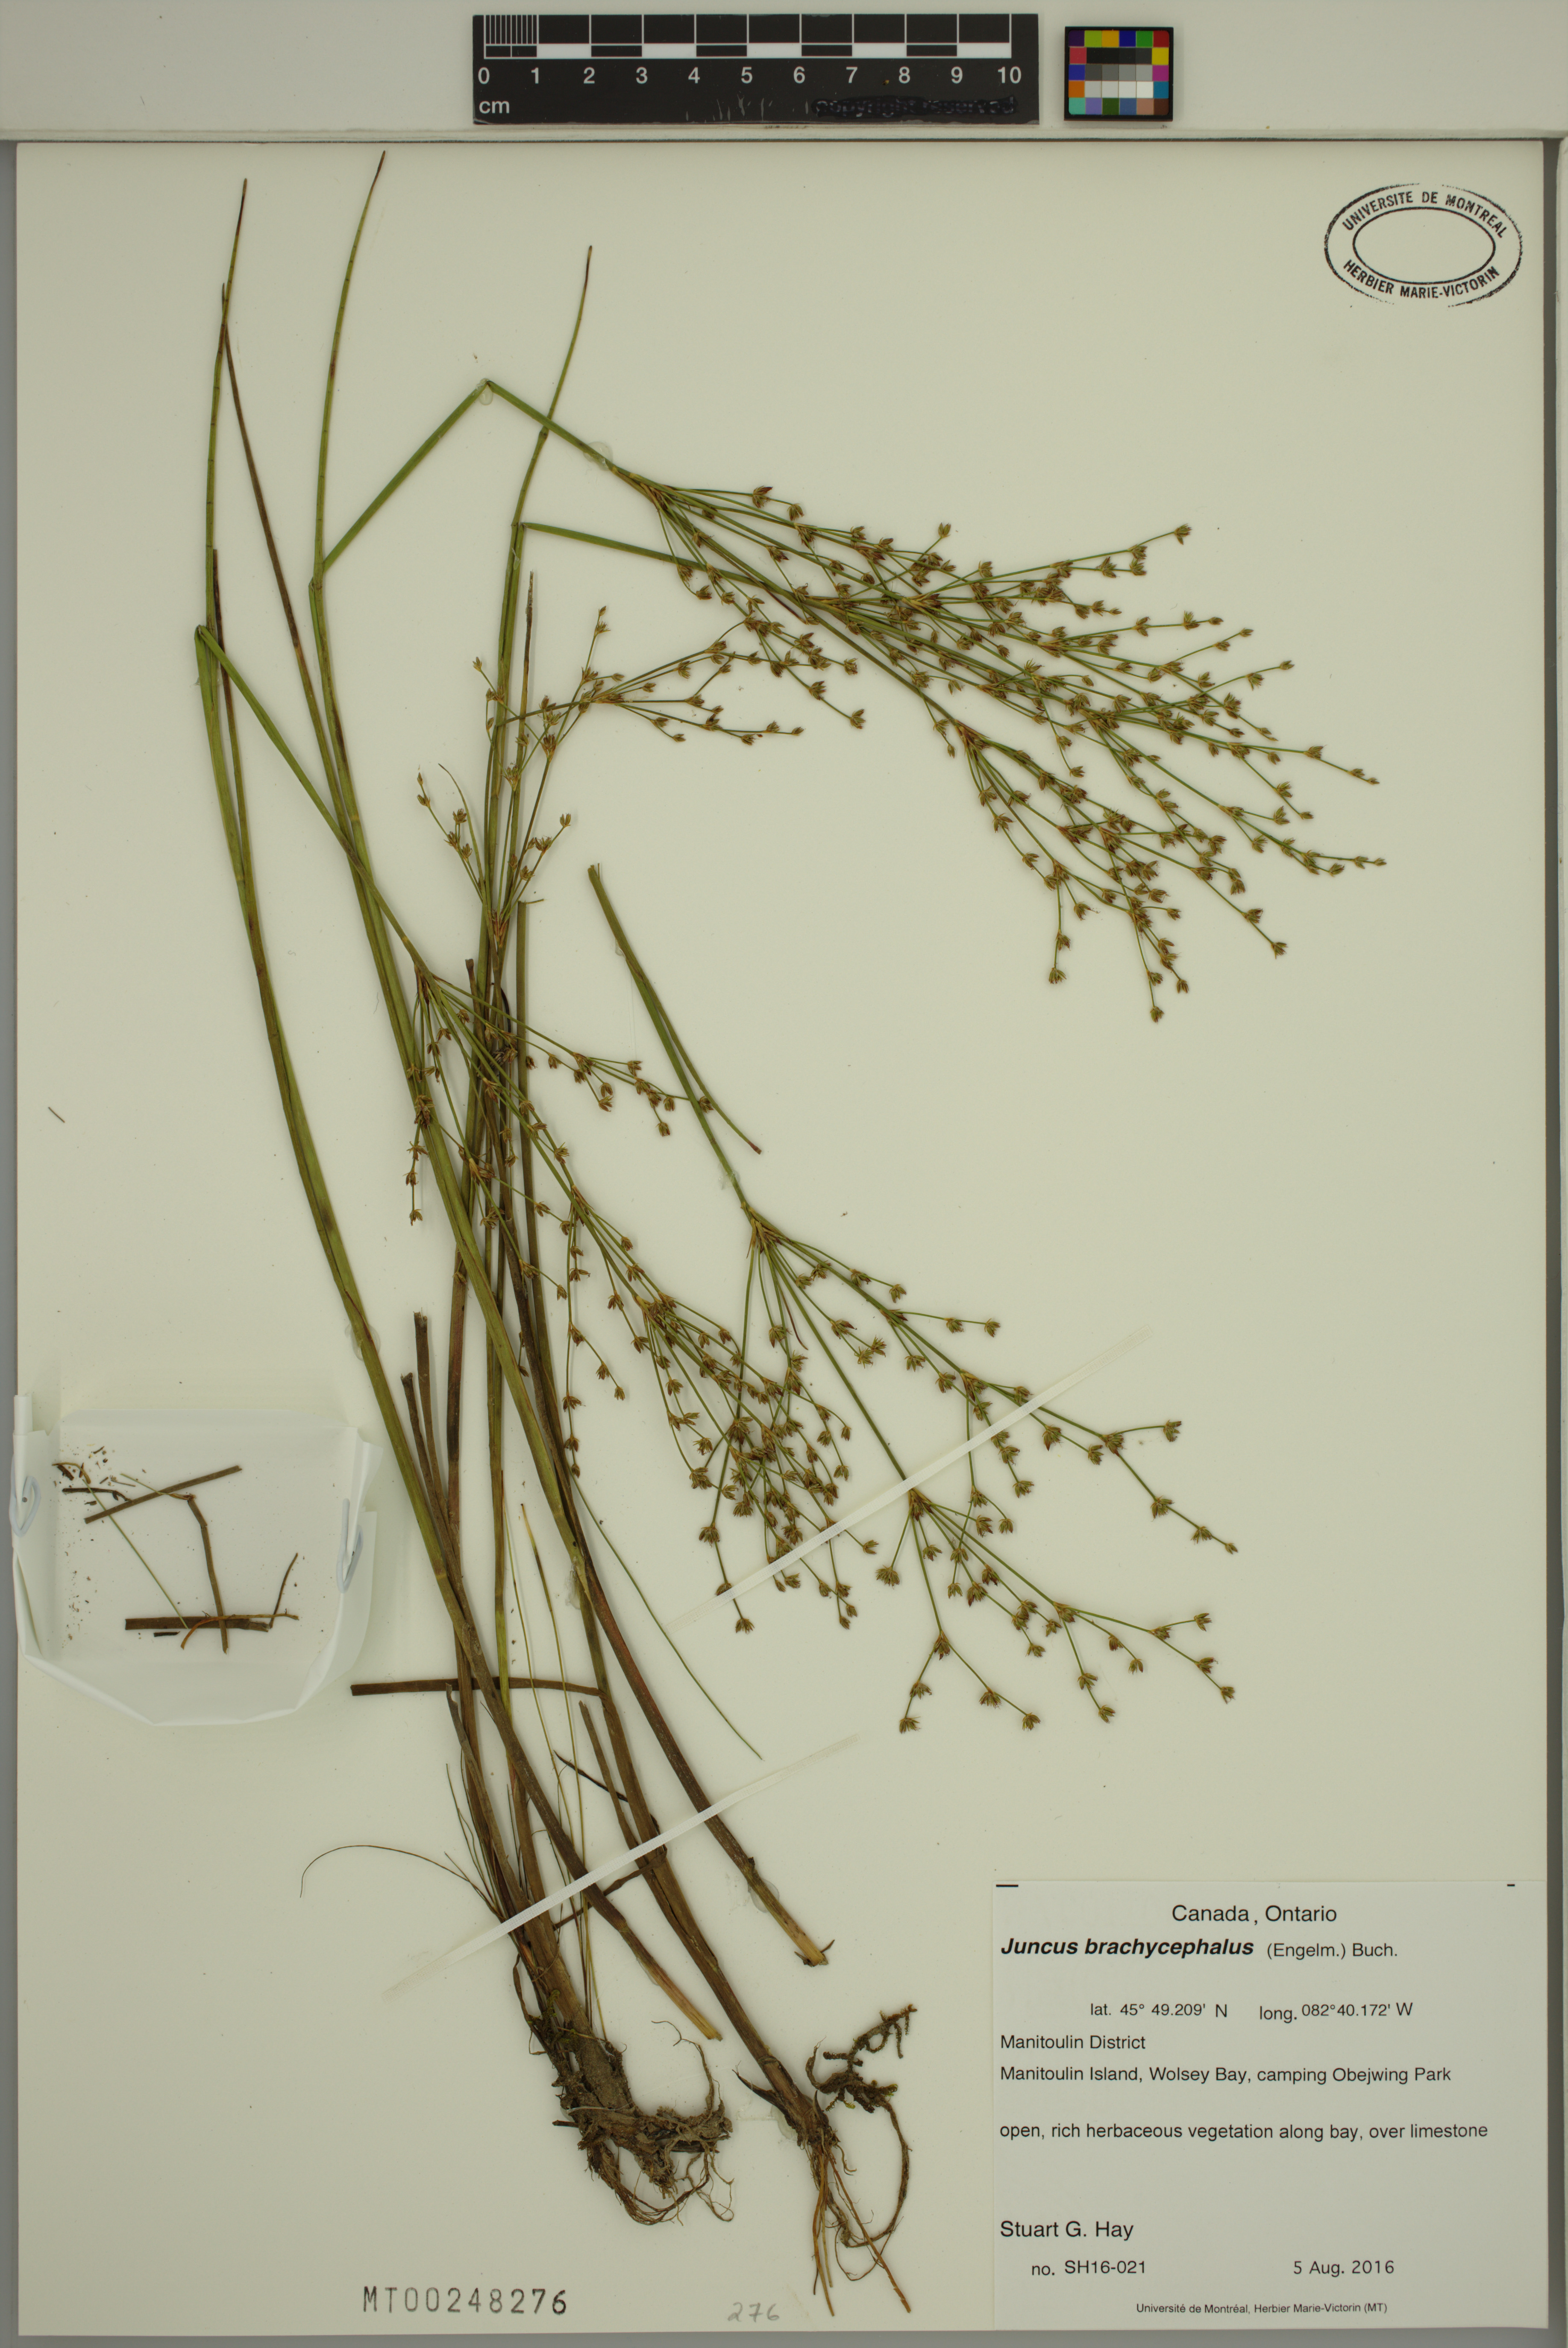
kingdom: Plantae
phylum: Tracheophyta
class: Liliopsida
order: Poales
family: Juncaceae
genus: Juncus
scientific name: Juncus brachycephalus
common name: Short-headed rush
